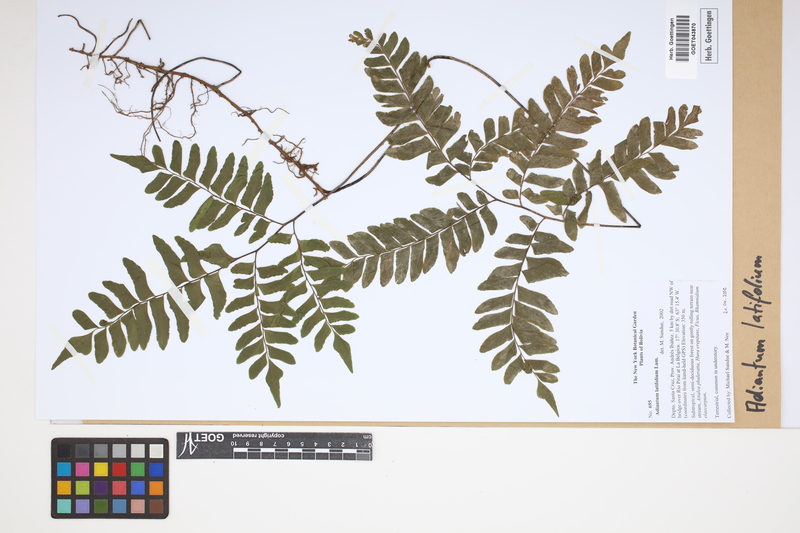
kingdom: Plantae
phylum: Tracheophyta
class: Polypodiopsida
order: Polypodiales
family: Pteridaceae
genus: Adiantum
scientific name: Adiantum latifolium
